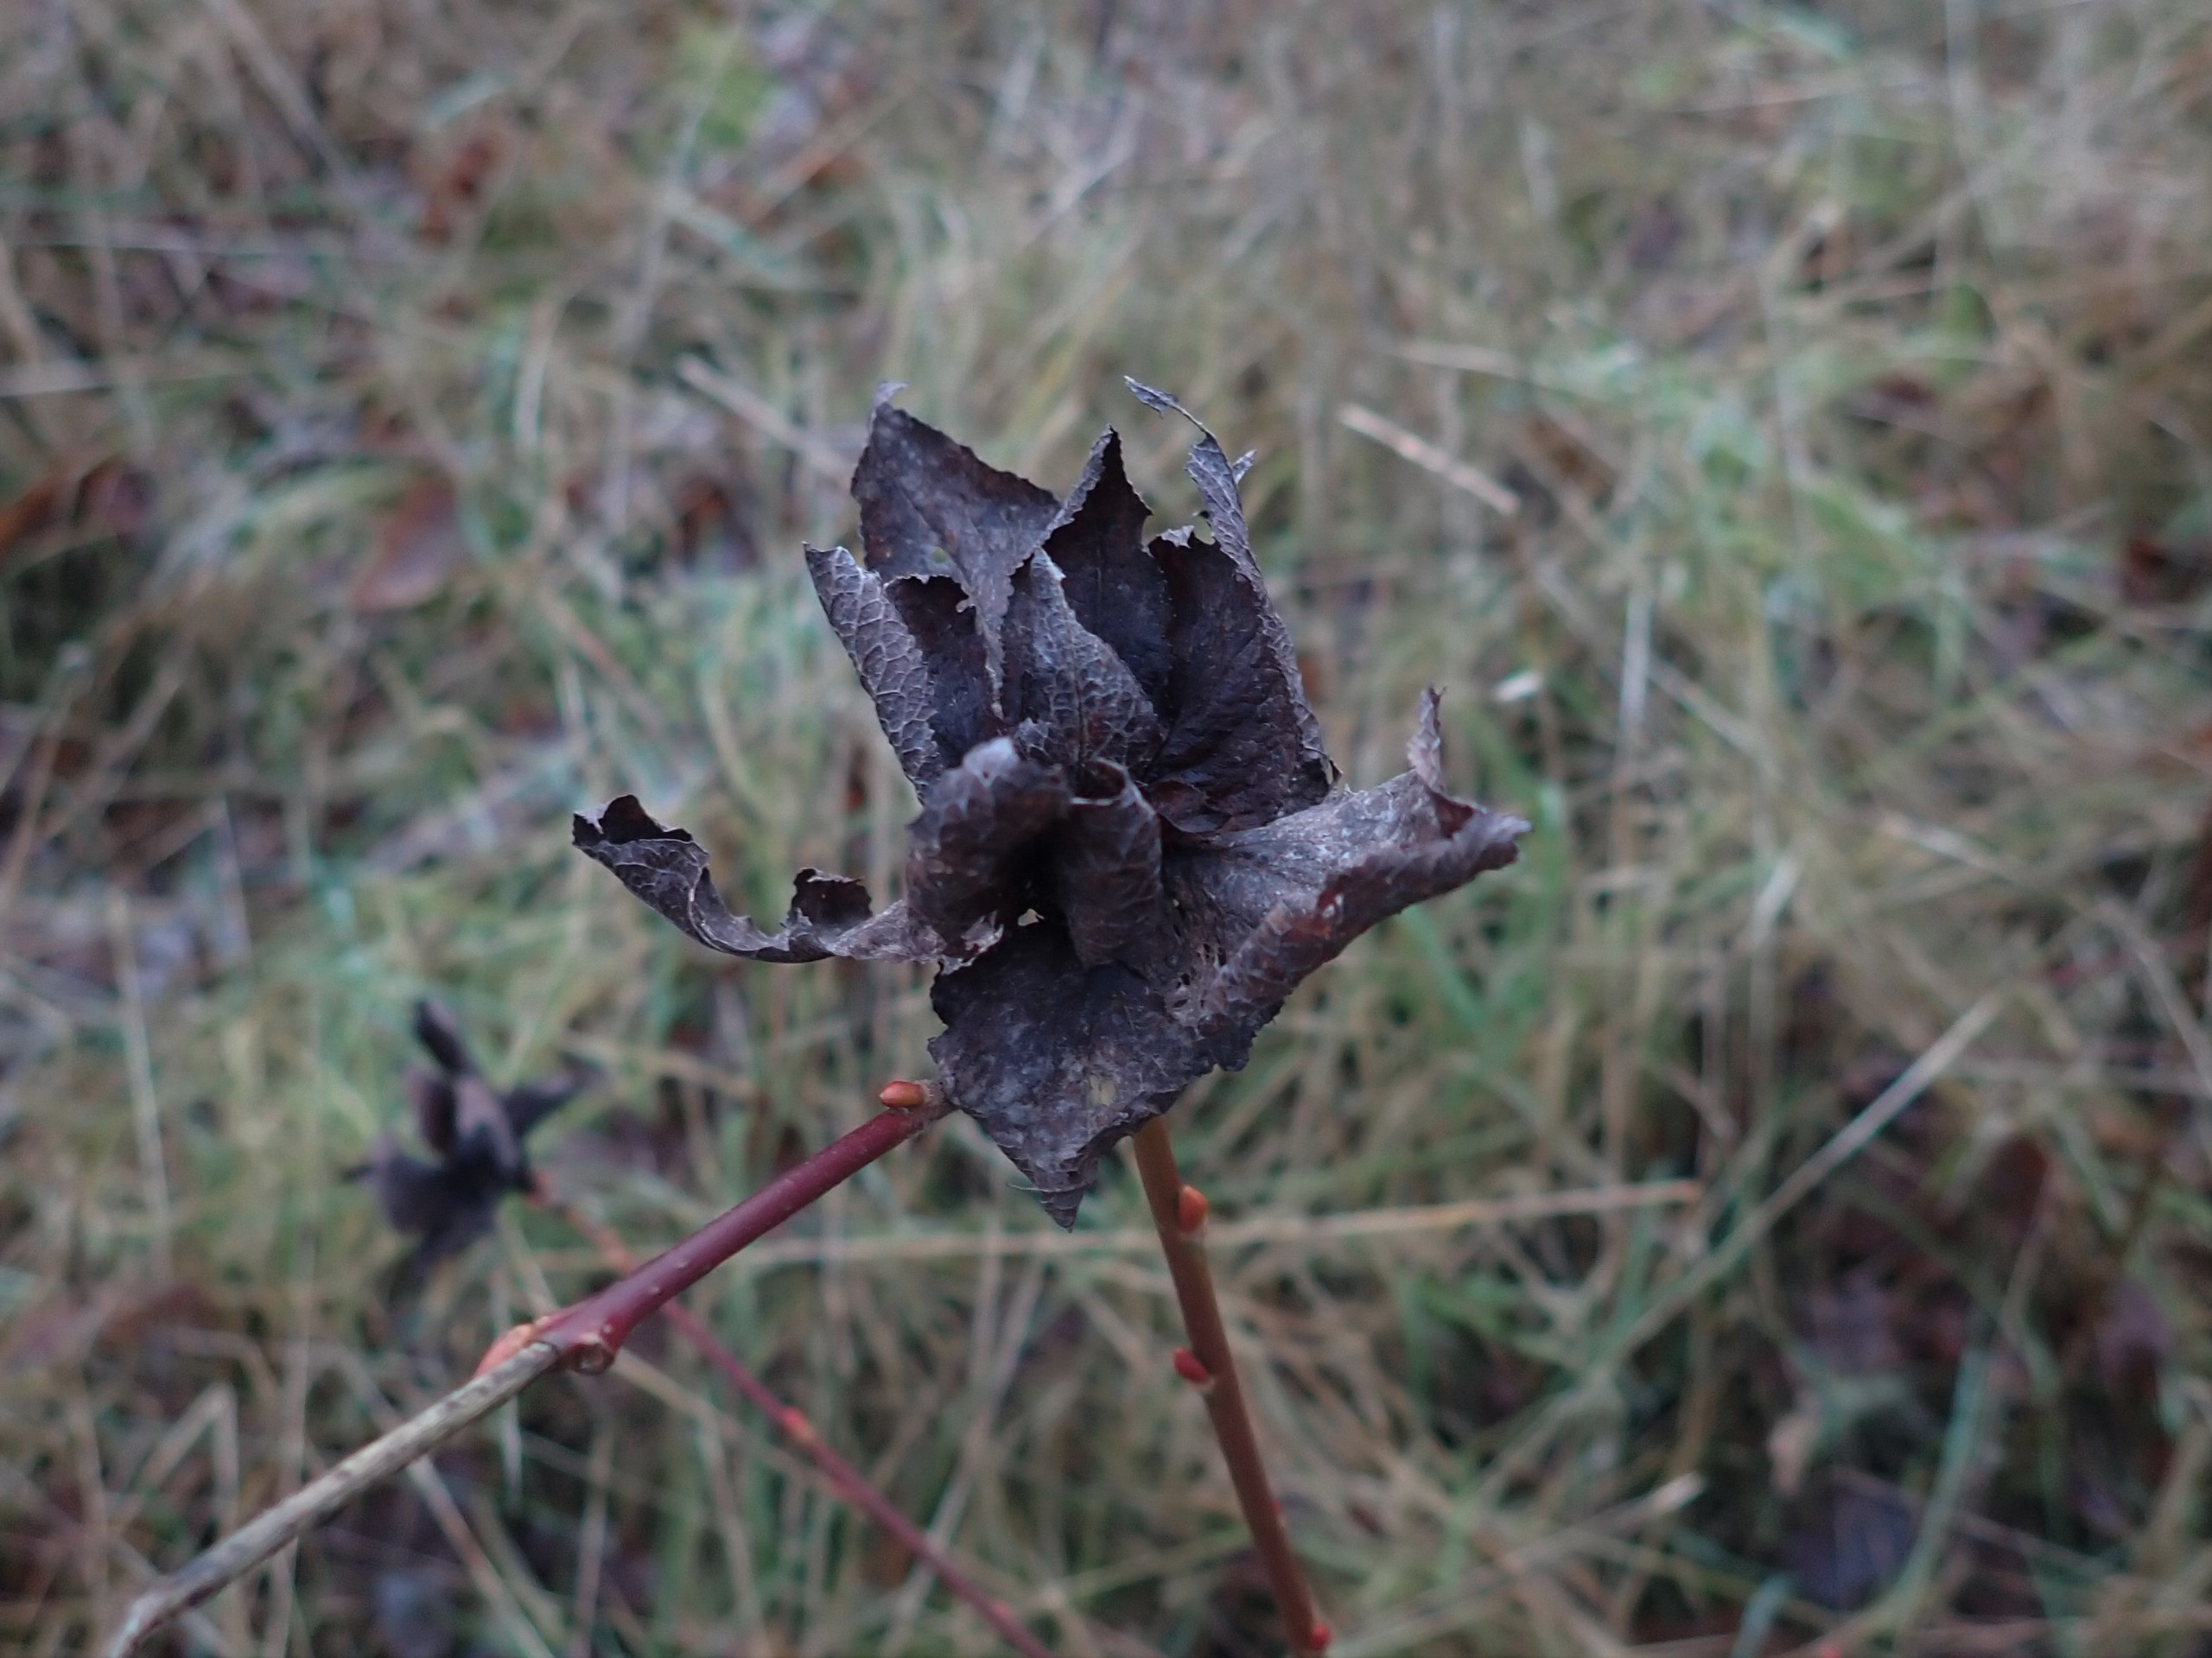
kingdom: Animalia
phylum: Arthropoda
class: Insecta
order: Diptera
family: Cecidomyiidae
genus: Rabdophaga
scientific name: Rabdophaga rosaria
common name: Pilerosetgalmyg
